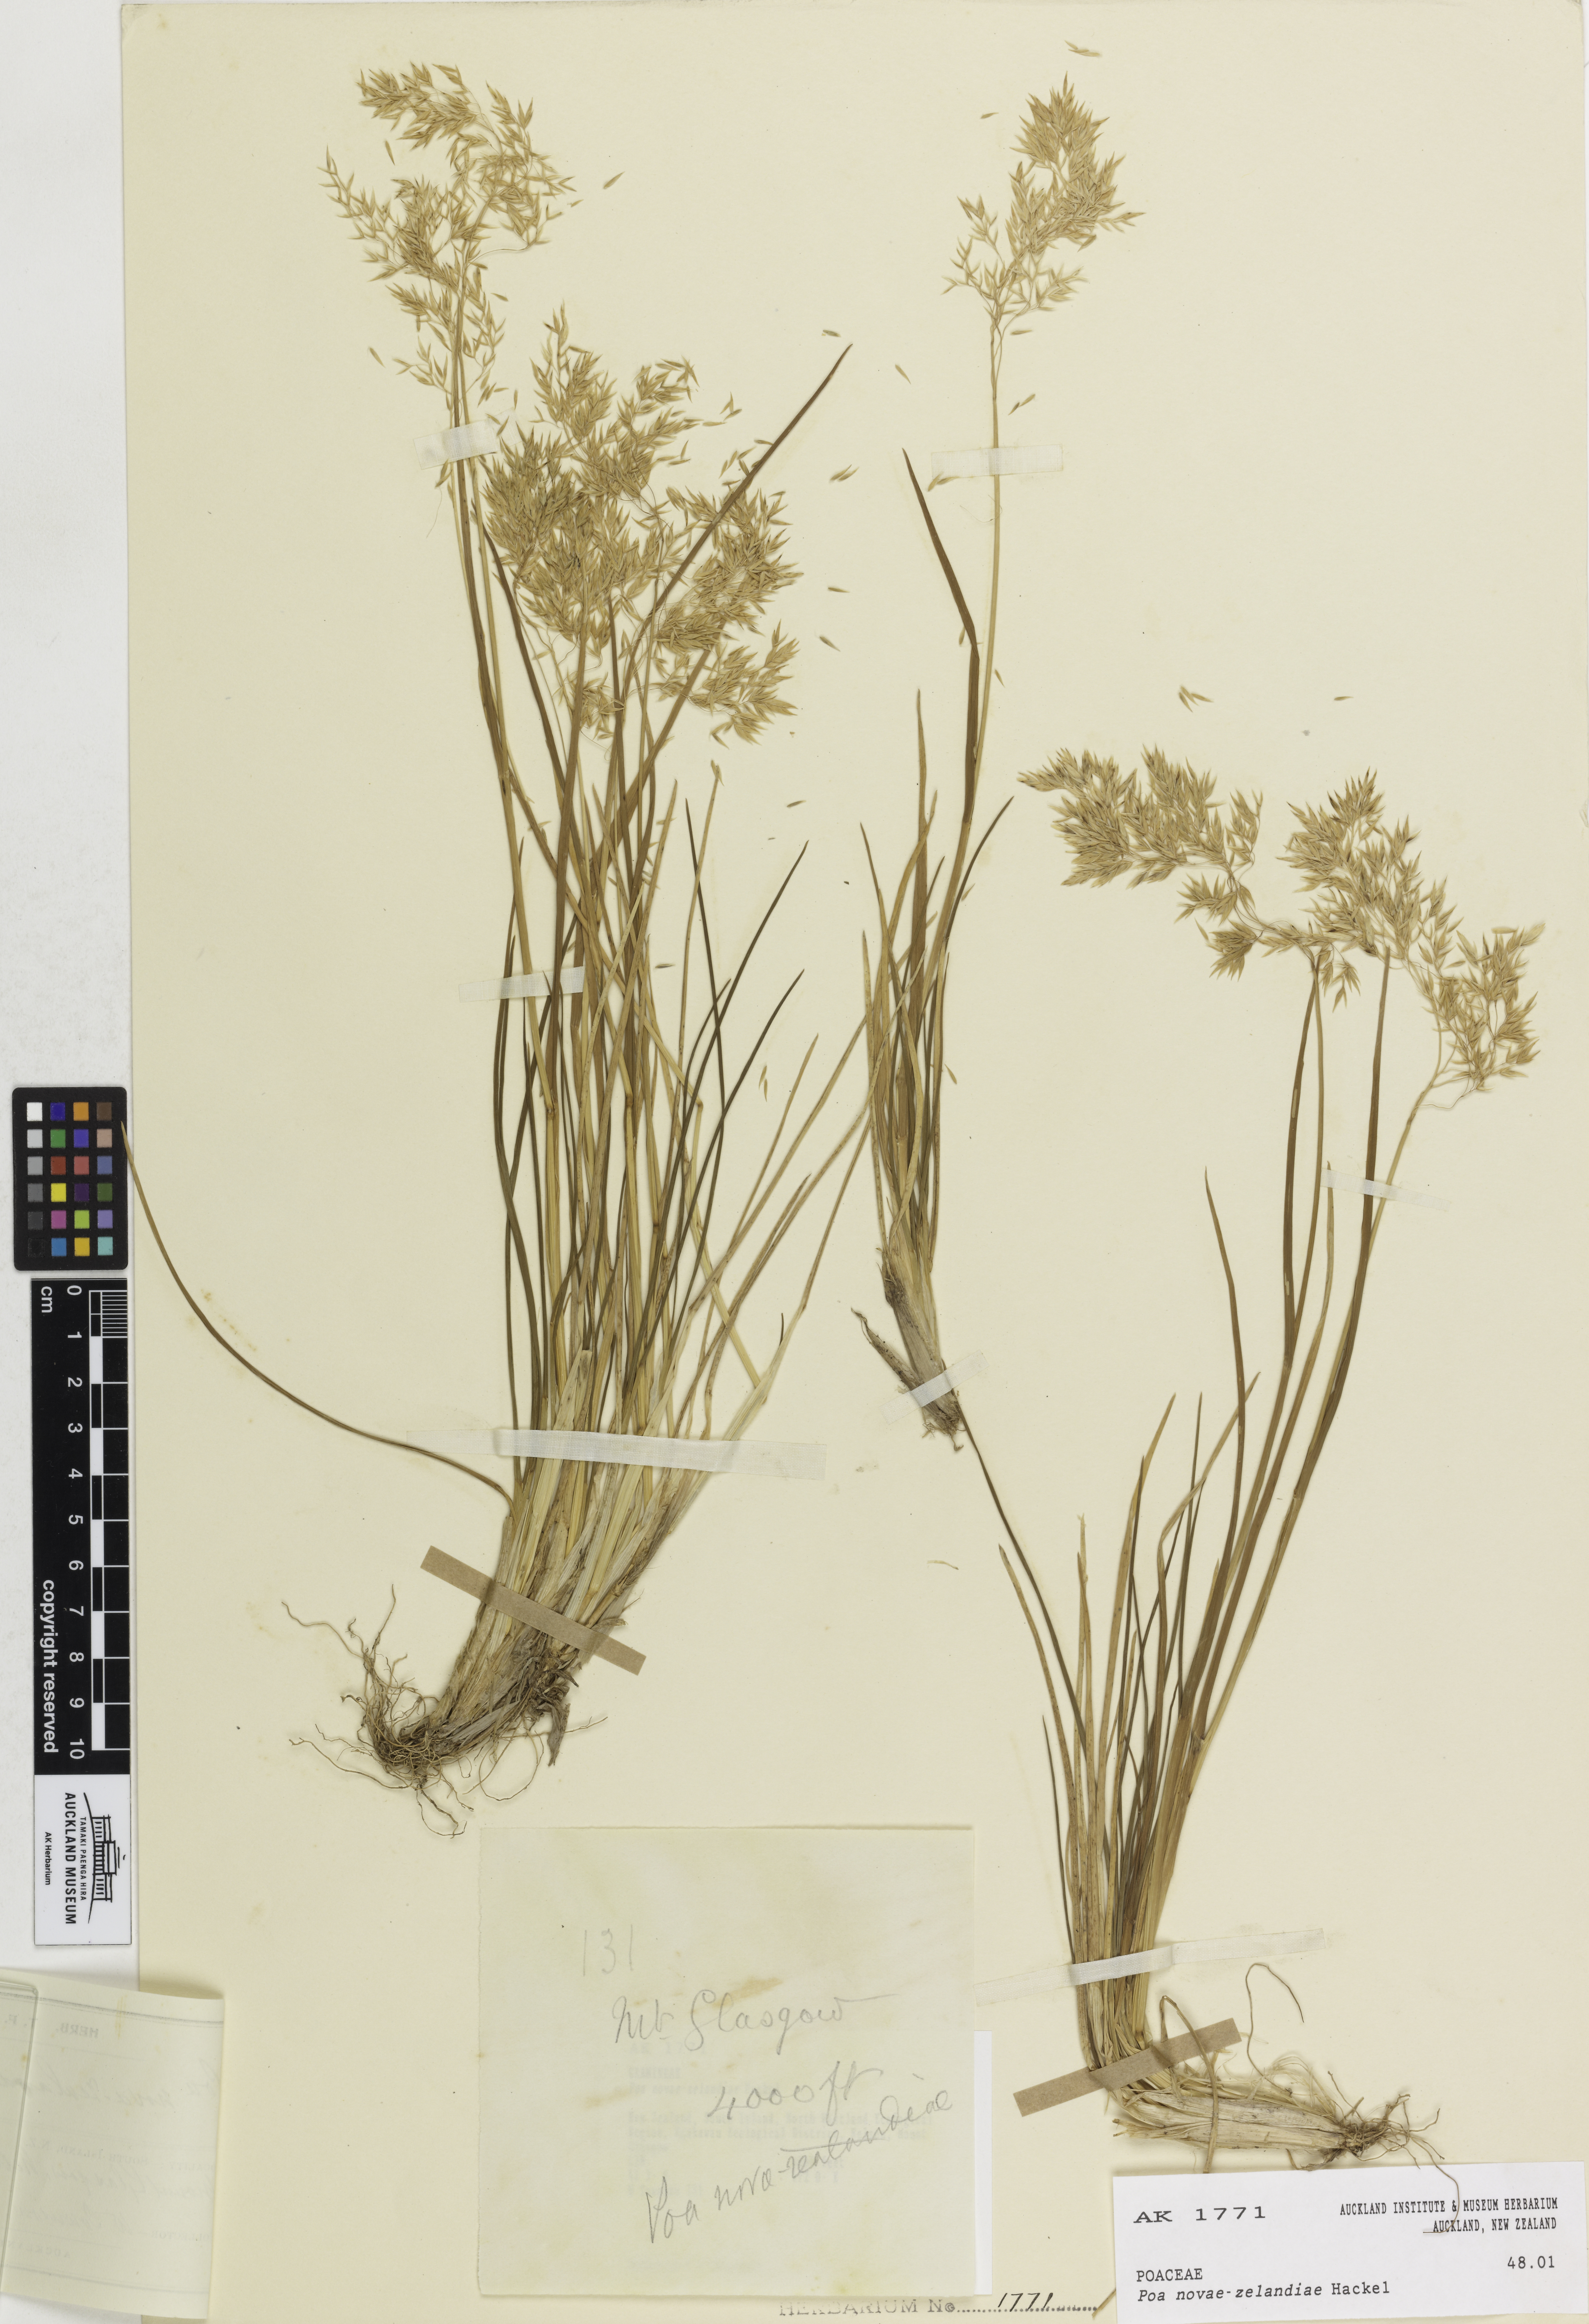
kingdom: Plantae
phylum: Tracheophyta
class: Liliopsida
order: Poales
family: Poaceae
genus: Poa
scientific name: Poa novae-zelandiae
